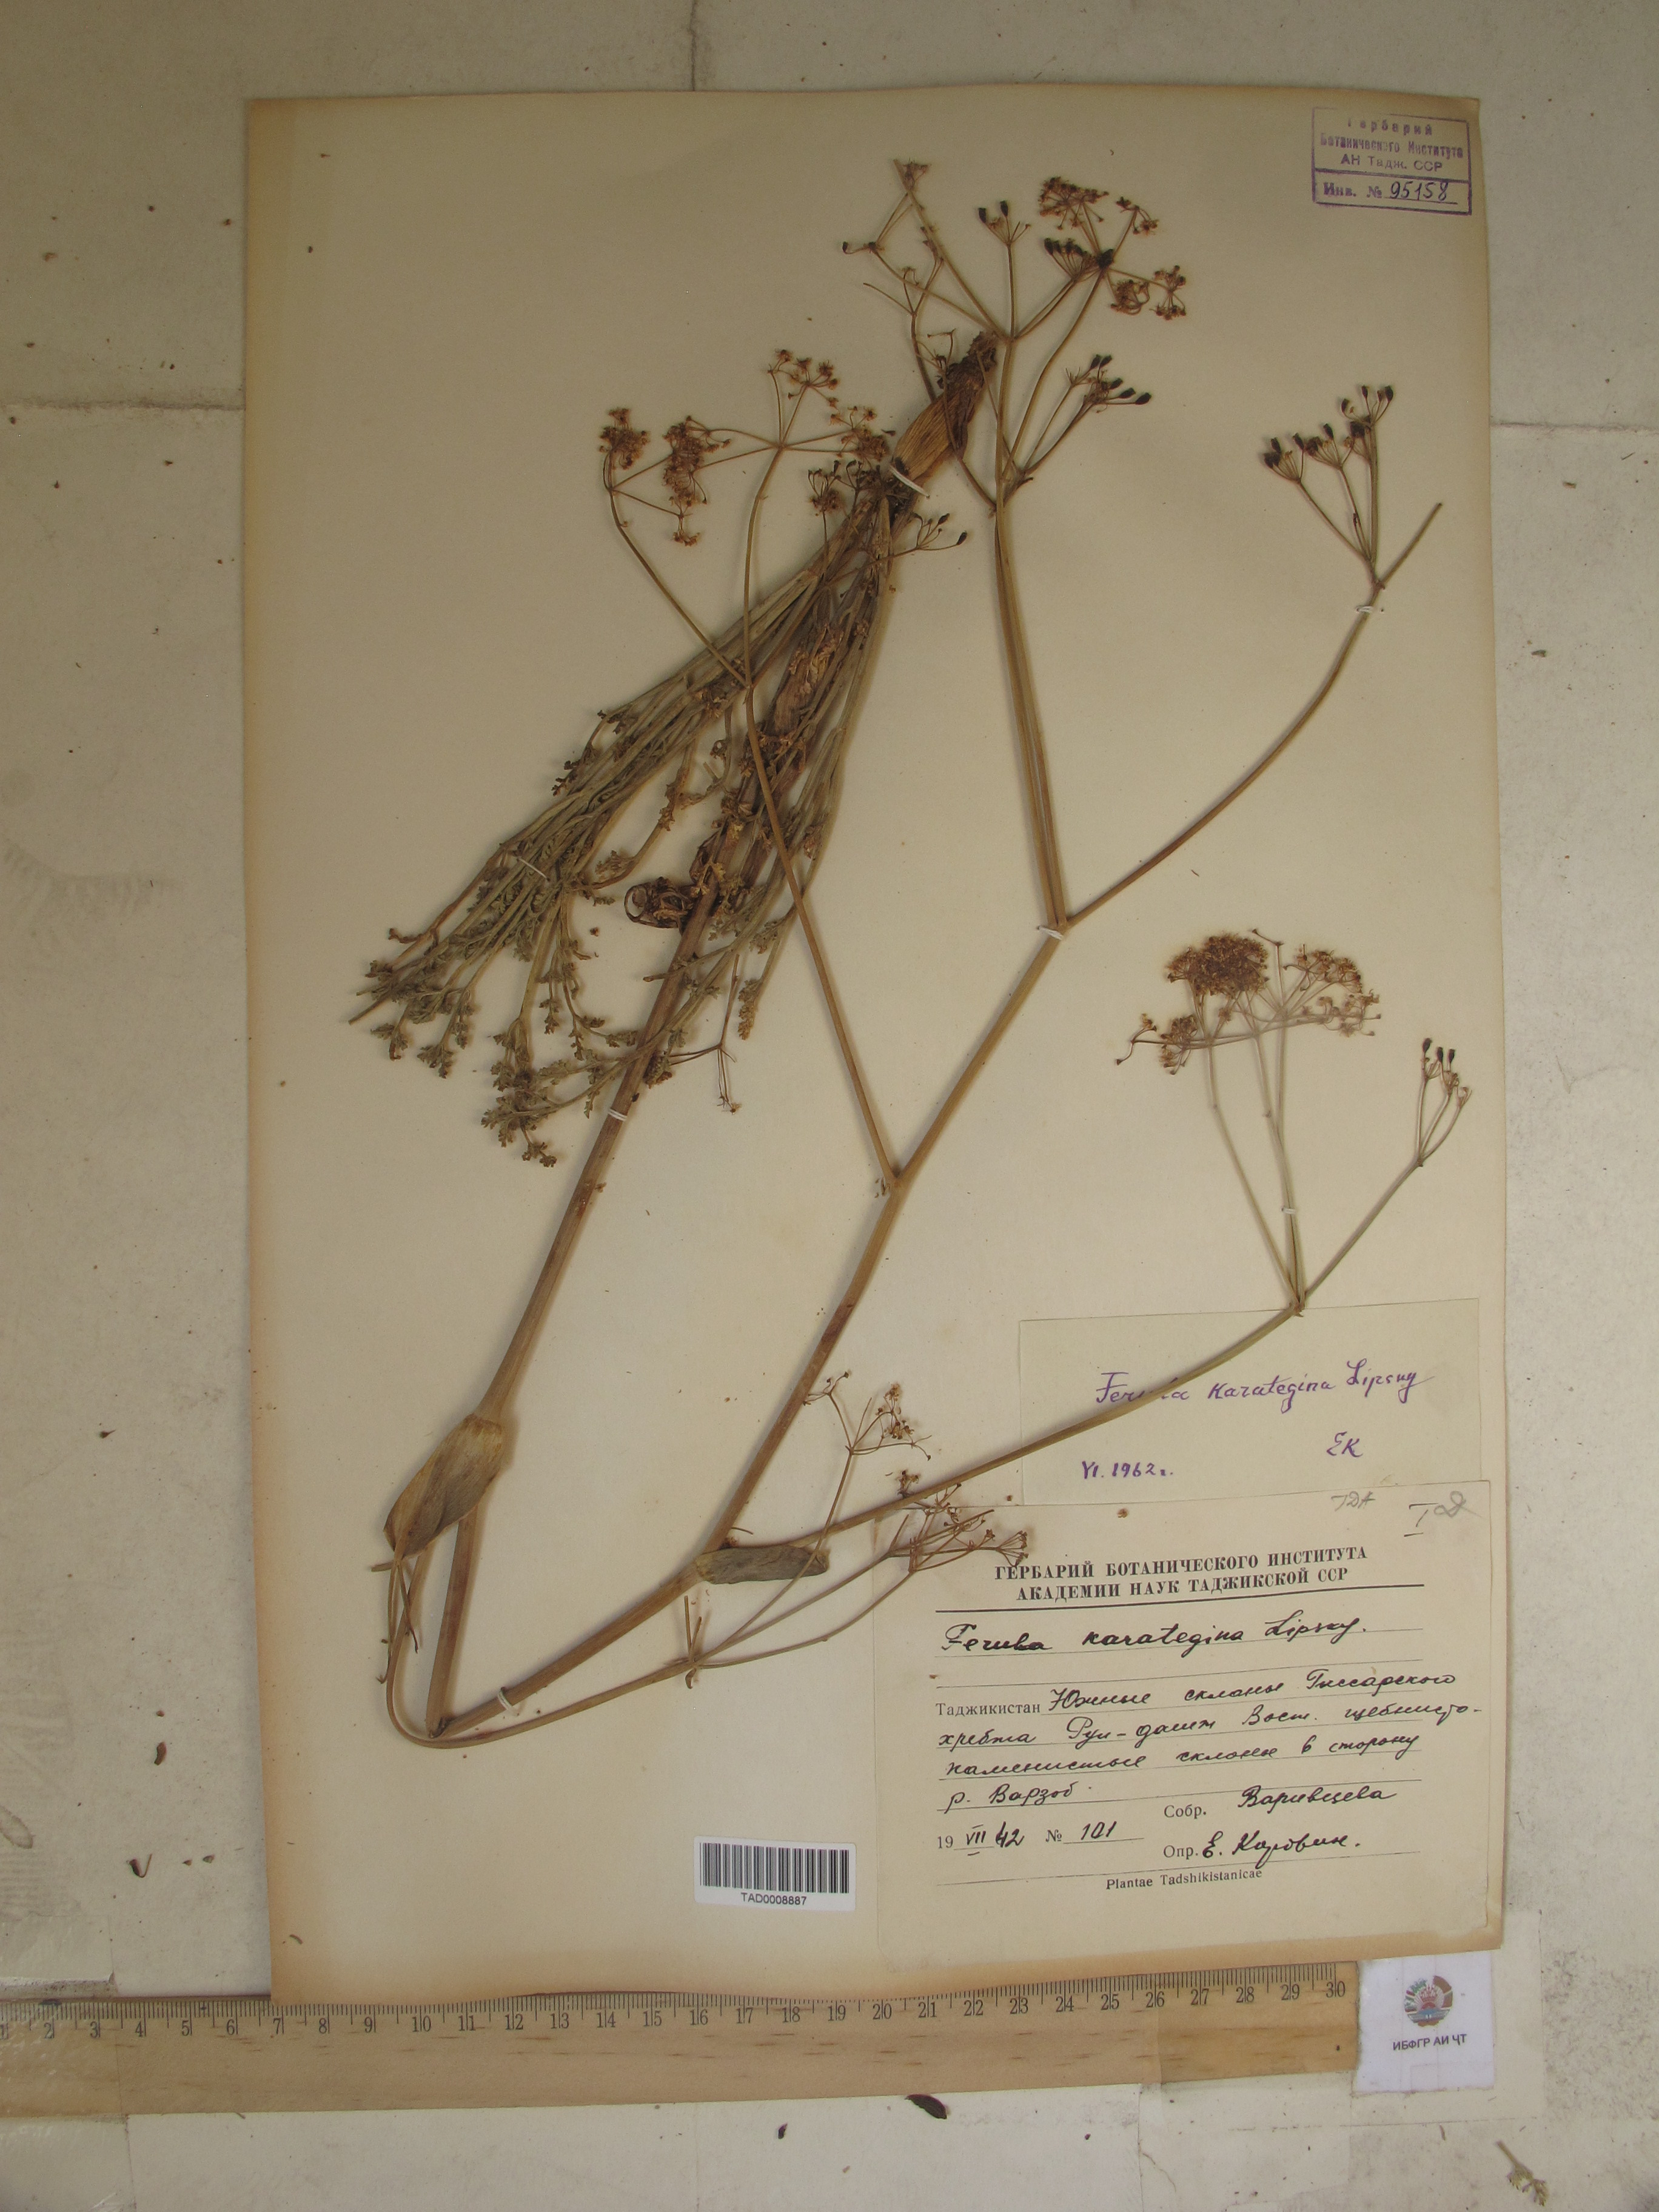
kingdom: Plantae
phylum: Tracheophyta
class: Magnoliopsida
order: Apiales
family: Apiaceae
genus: Ferula
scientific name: Ferula karategina
